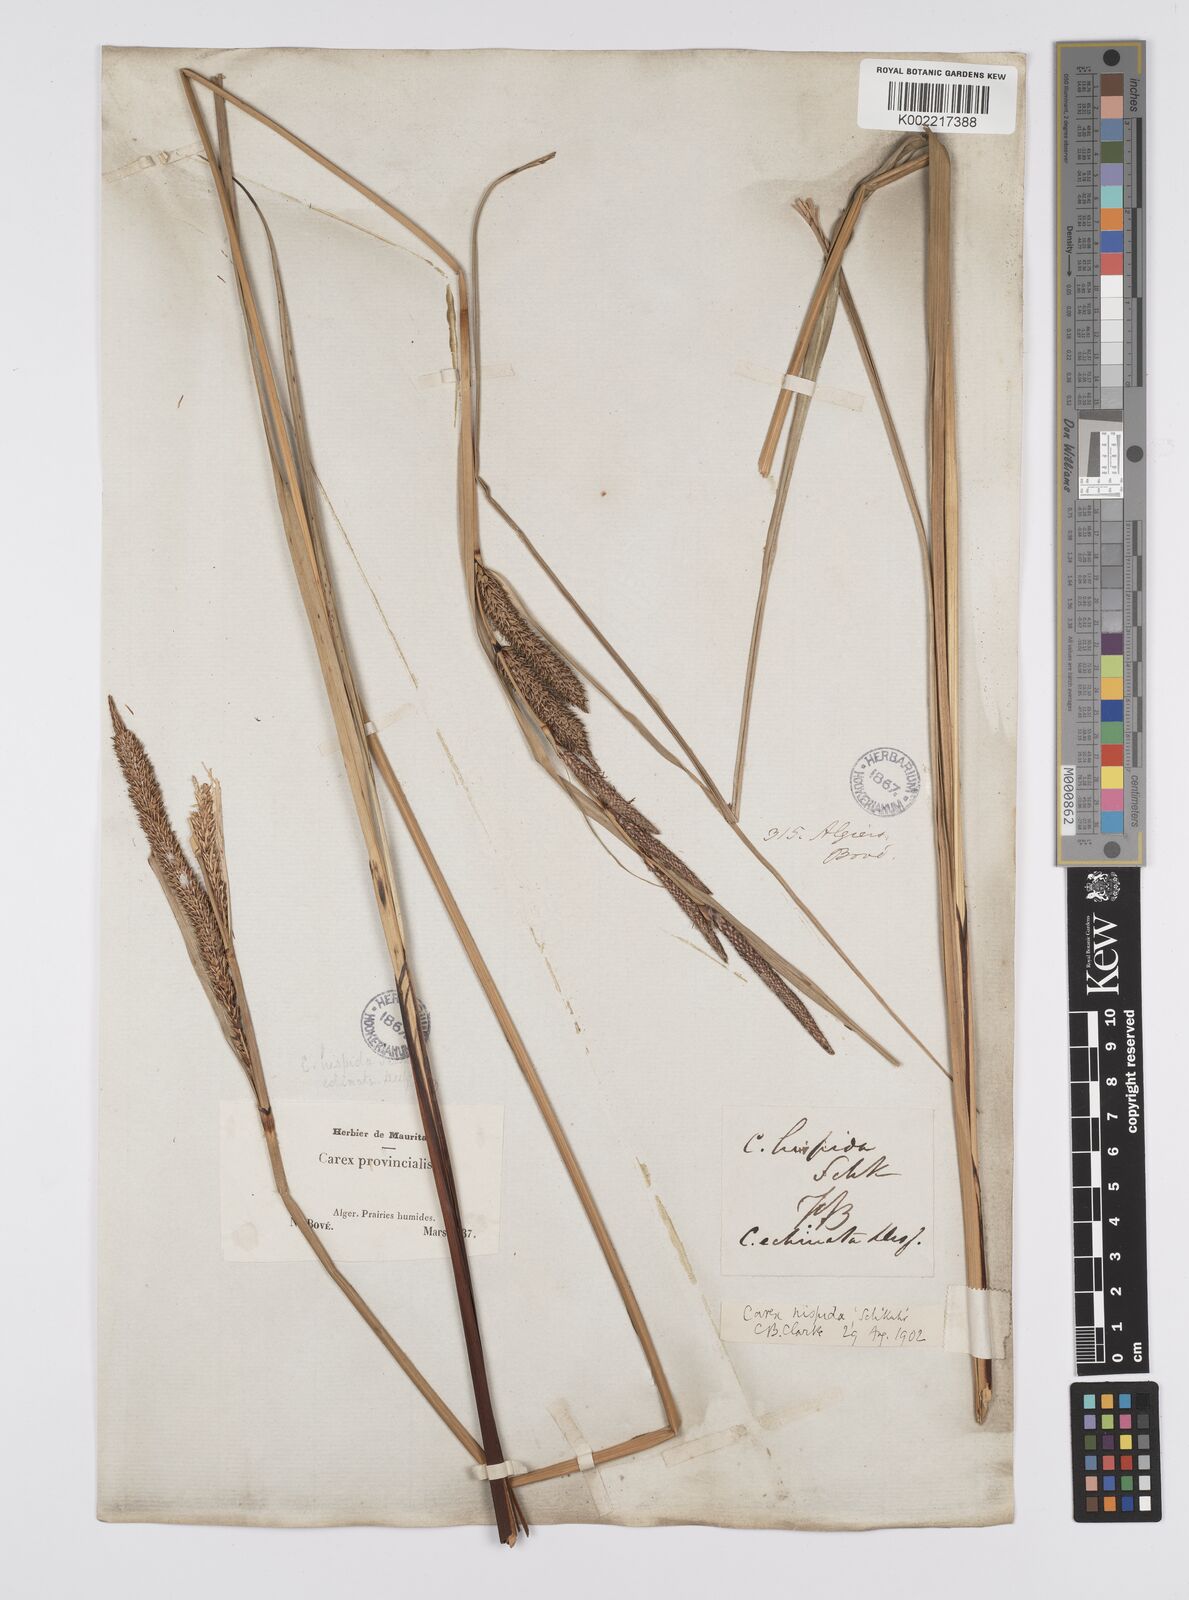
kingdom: Plantae
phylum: Tracheophyta
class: Liliopsida
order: Poales
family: Cyperaceae
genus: Carex
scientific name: Carex hispida
